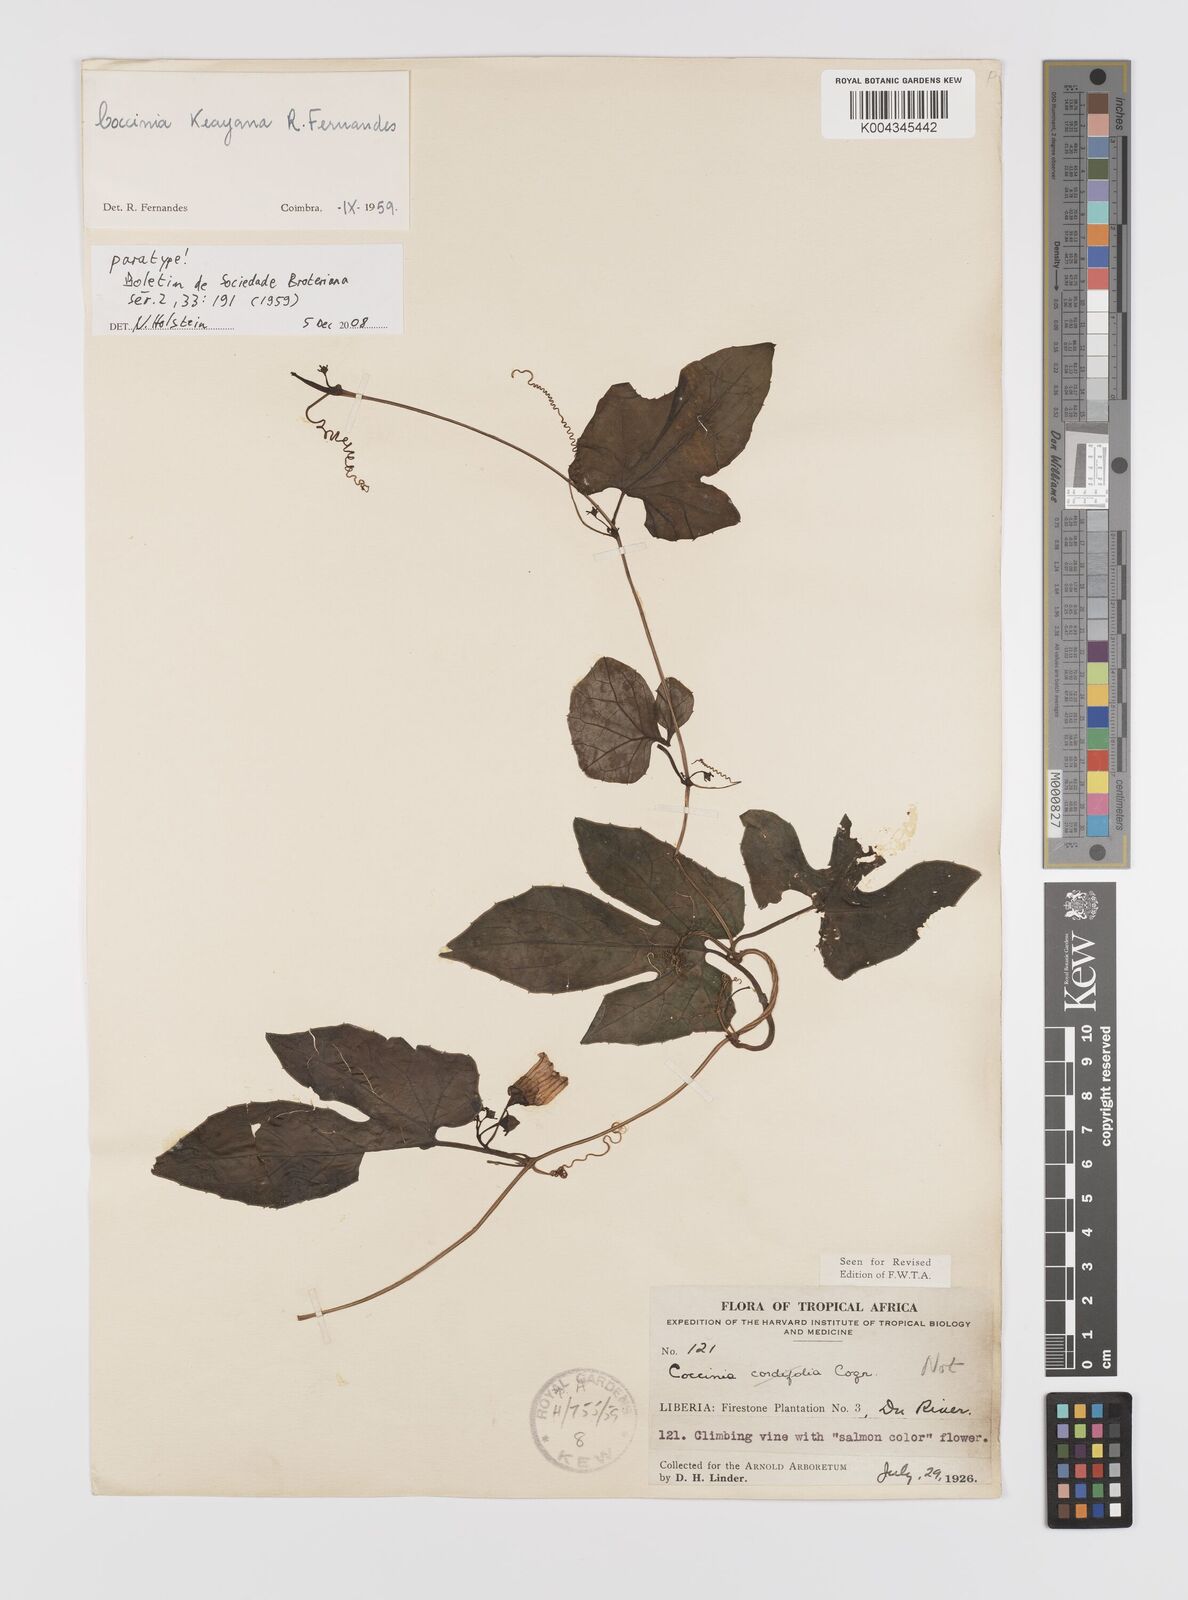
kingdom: Plantae
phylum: Tracheophyta
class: Magnoliopsida
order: Cucurbitales
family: Cucurbitaceae
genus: Coccinia
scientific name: Coccinia keayana
